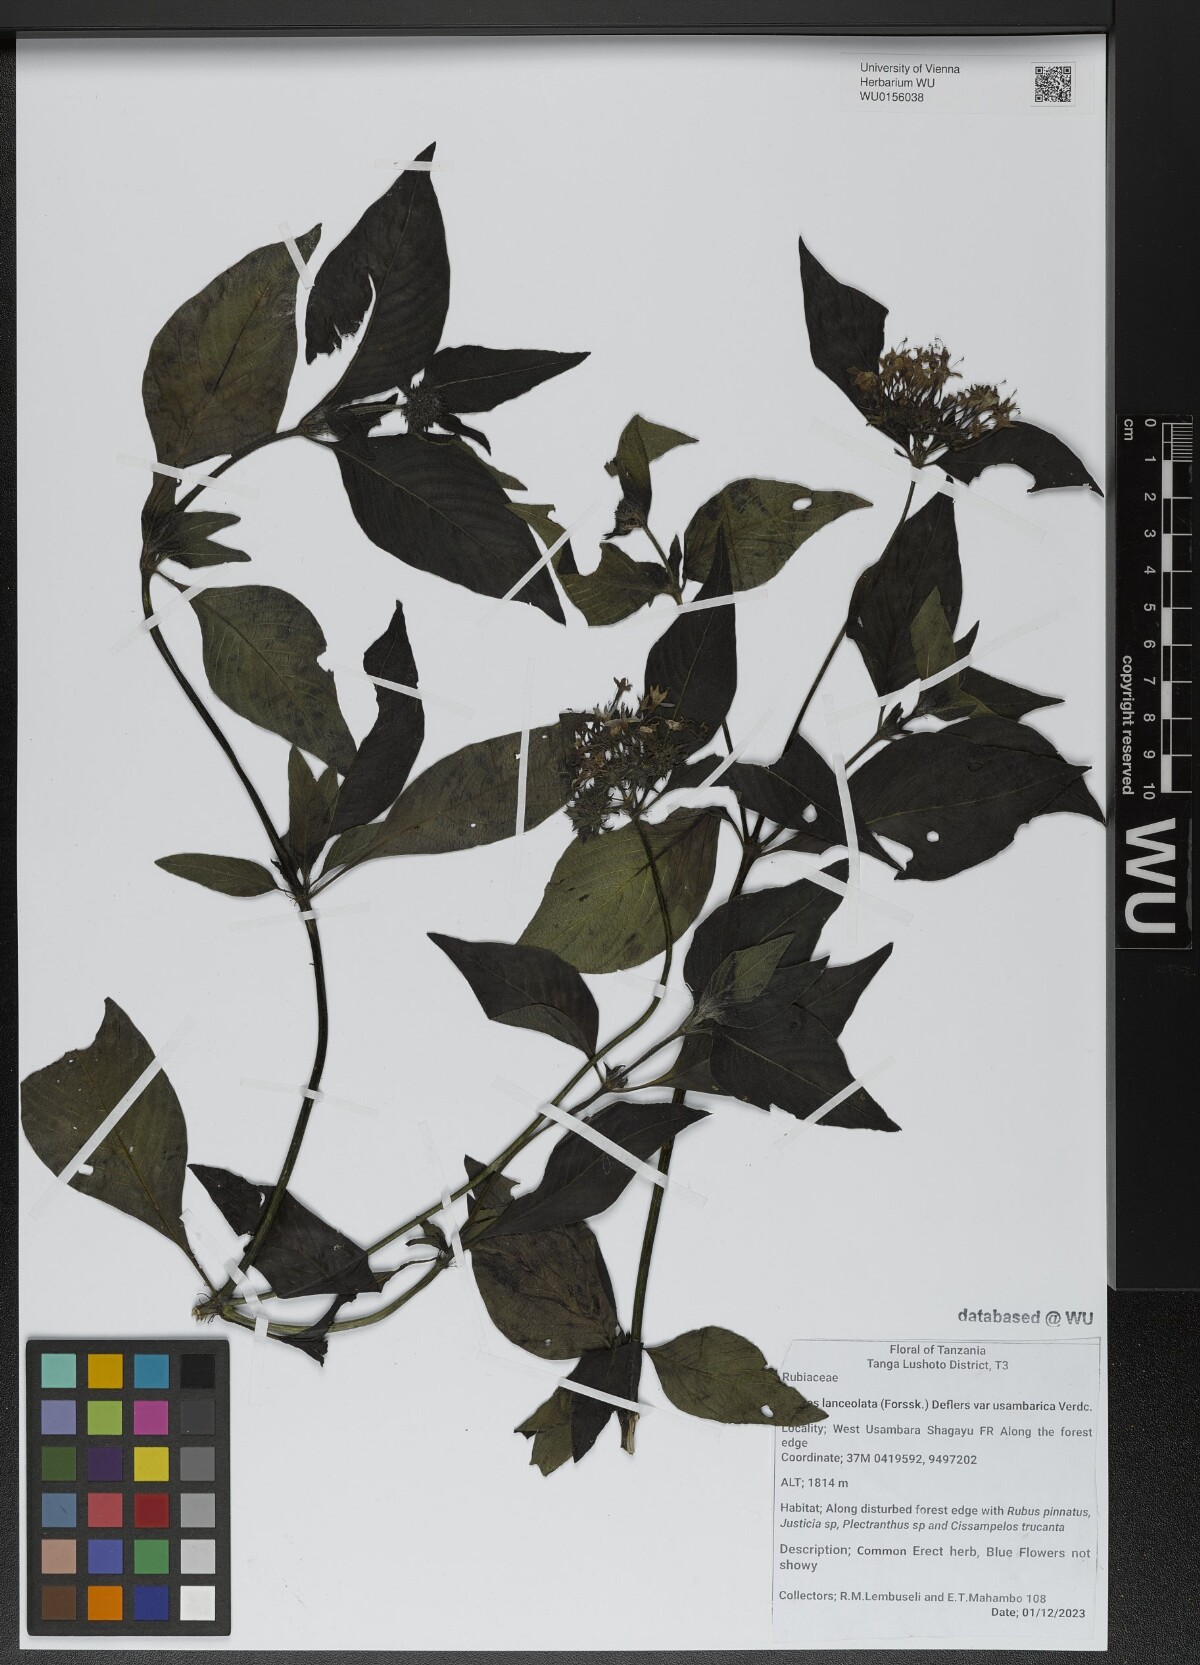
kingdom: Plantae
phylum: Tracheophyta
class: Magnoliopsida
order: Gentianales
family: Rubiaceae
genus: Pentas
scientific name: Pentas lanceolata
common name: Egyptian starcluster
